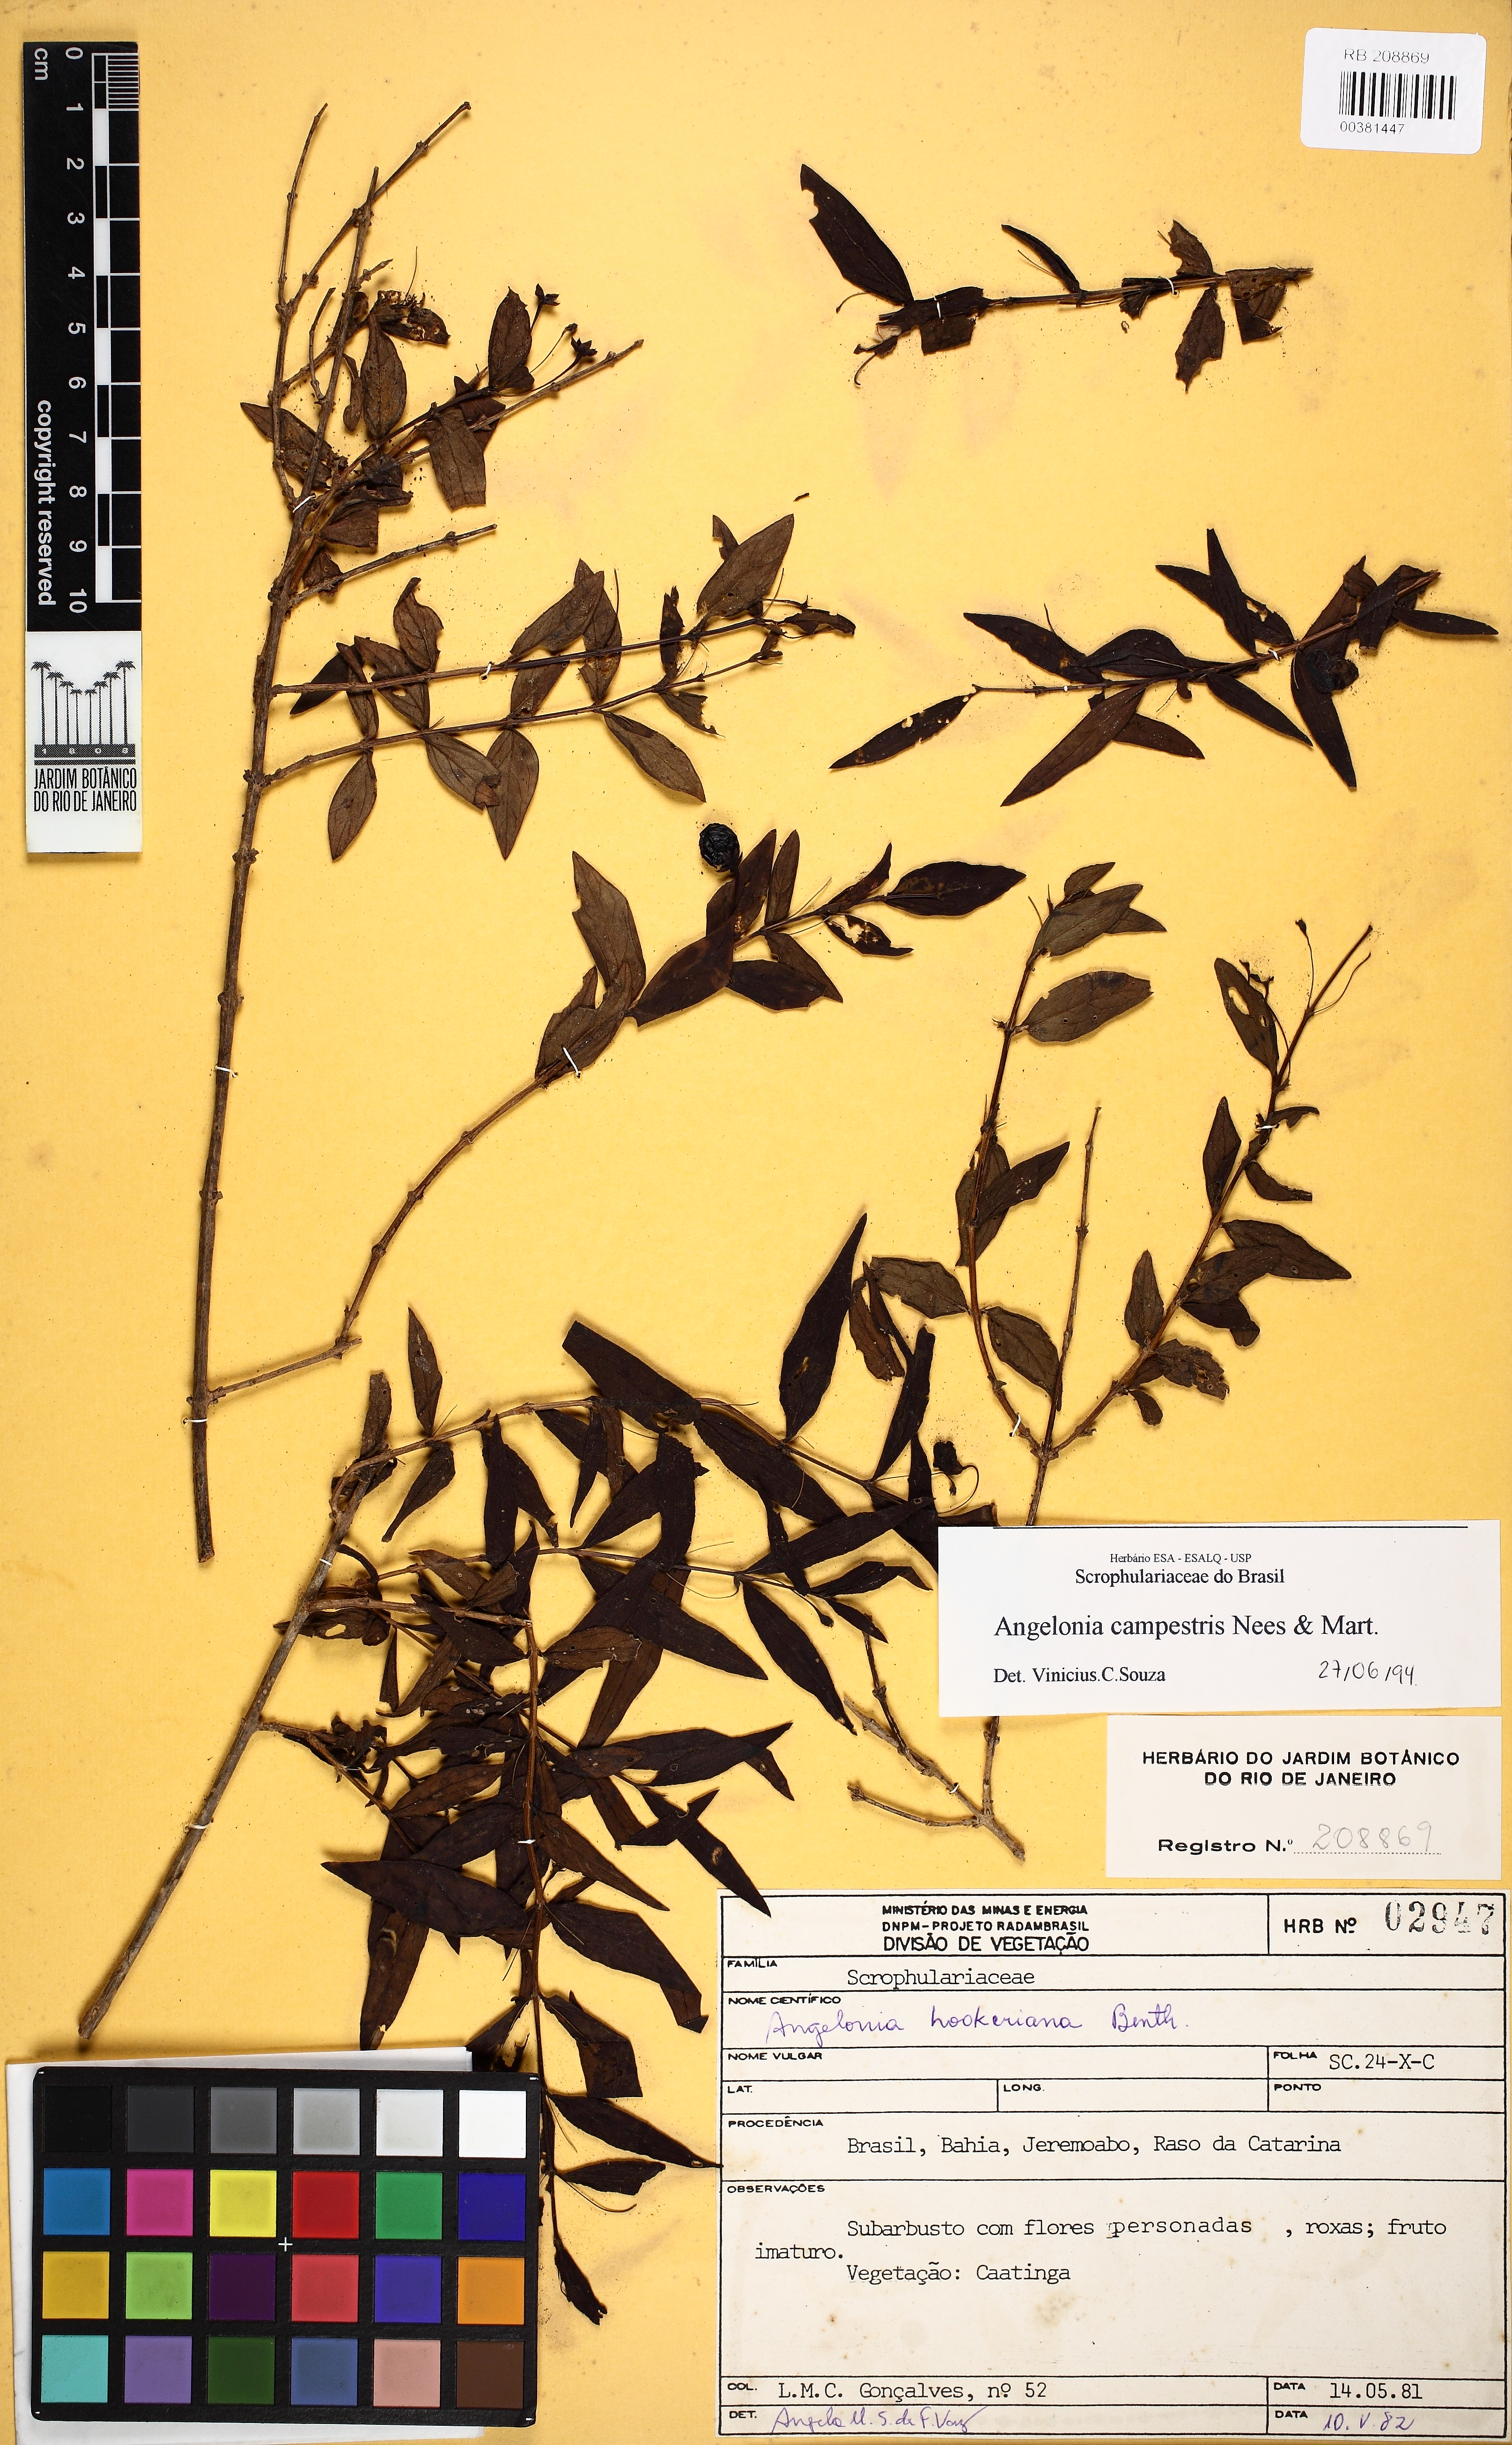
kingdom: Plantae
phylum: Tracheophyta
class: Magnoliopsida
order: Lamiales
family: Plantaginaceae
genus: Angelonia
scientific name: Angelonia campestris
